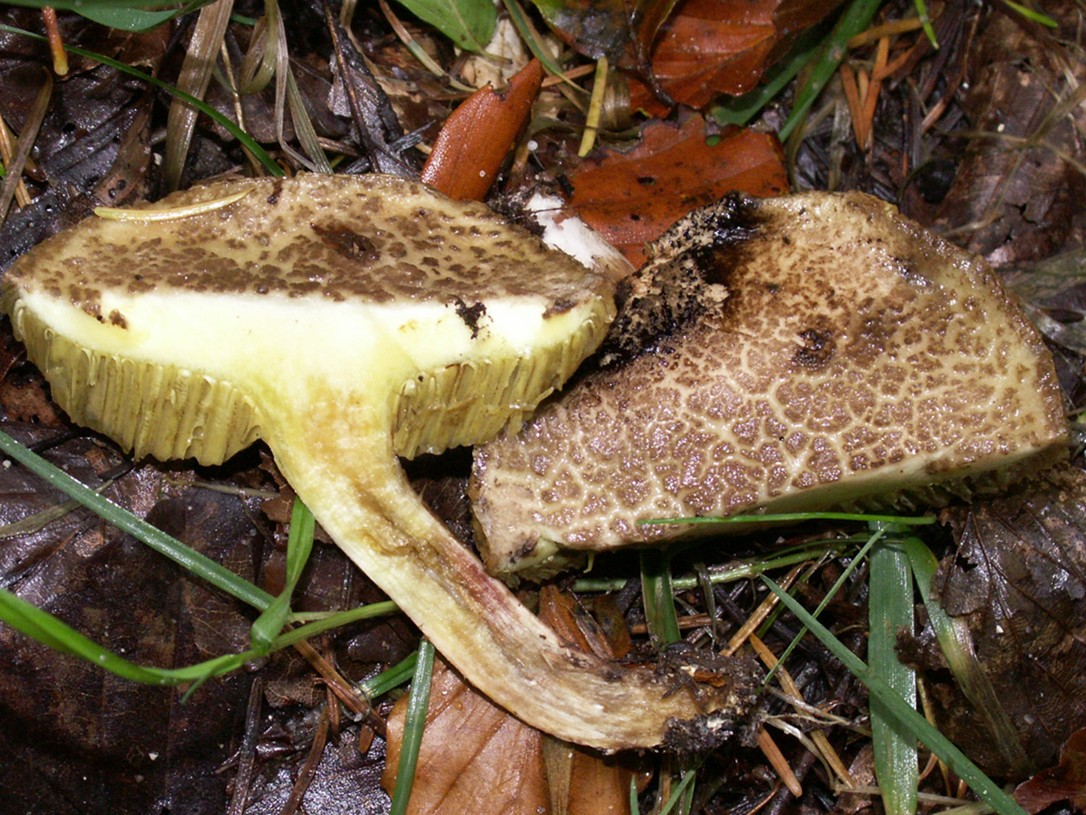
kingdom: Fungi
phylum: Basidiomycota
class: Agaricomycetes
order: Boletales
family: Boletaceae
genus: Xerocomellus
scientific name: Xerocomellus porosporus
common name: hvidsprukken rørhat
